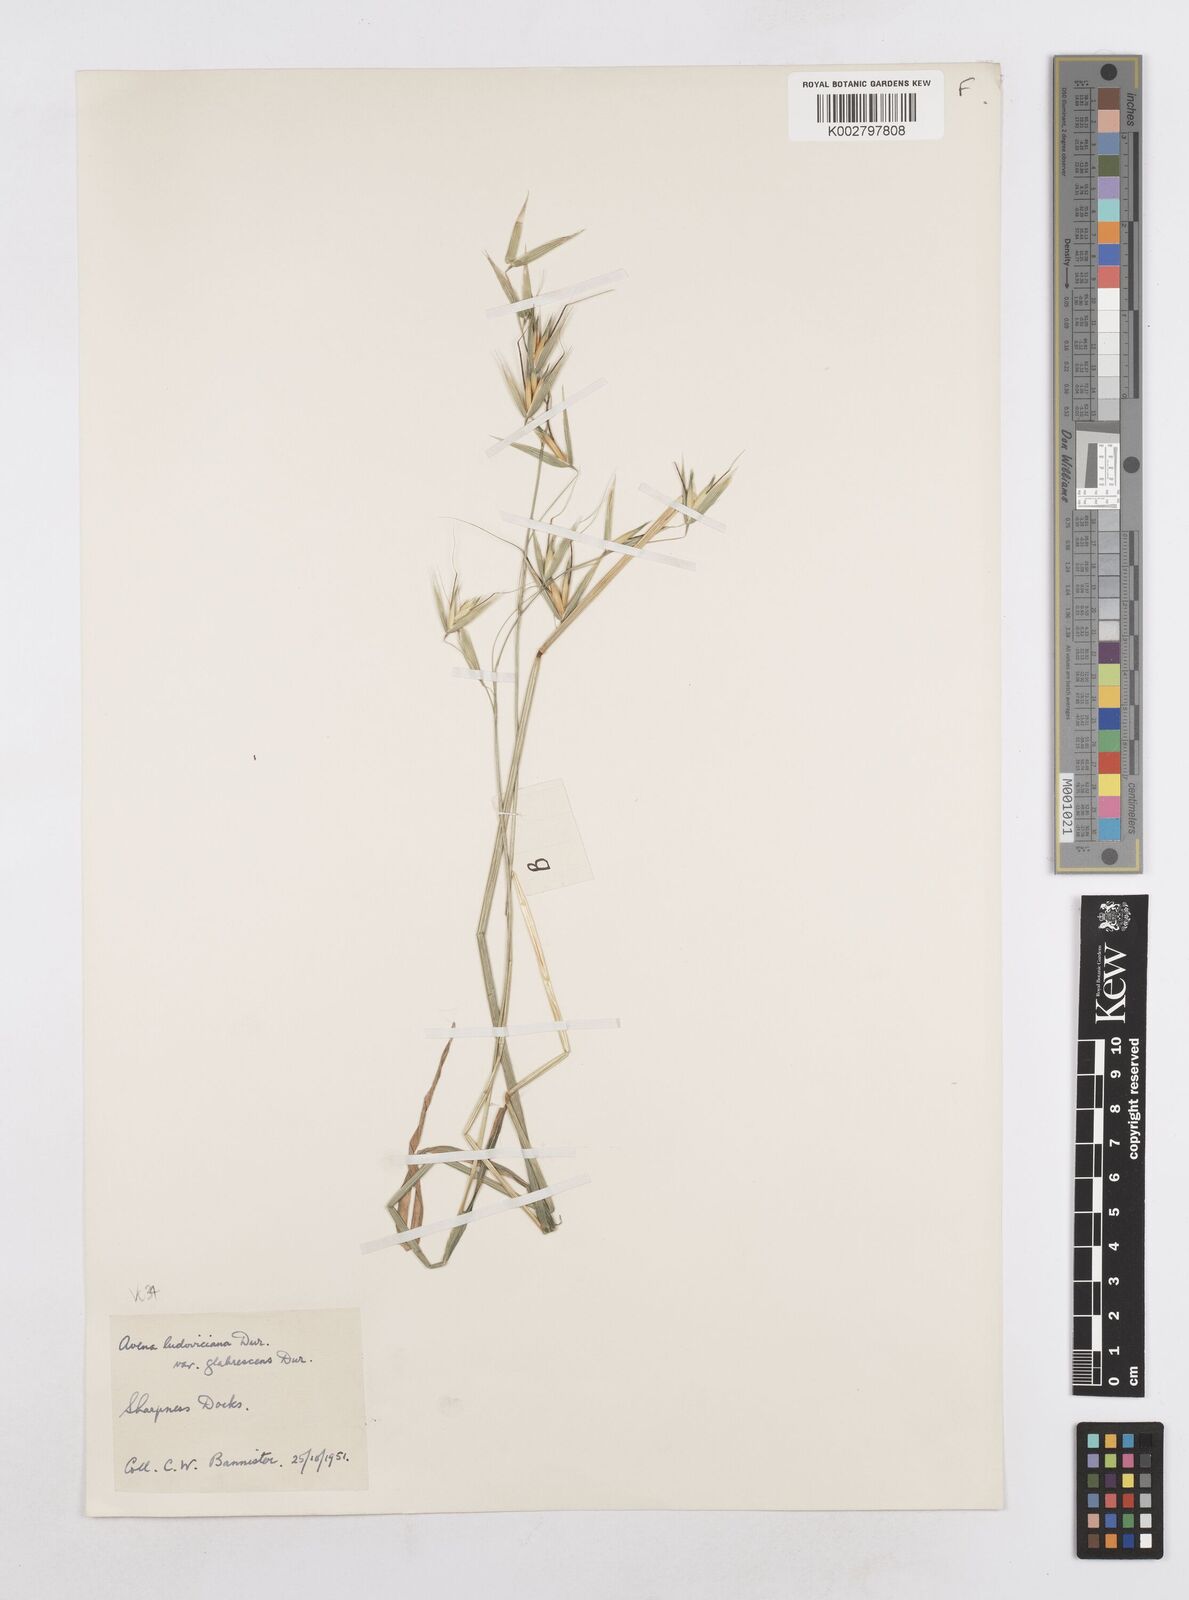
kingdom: Plantae
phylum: Tracheophyta
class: Liliopsida
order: Poales
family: Poaceae
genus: Avena
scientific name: Avena sterilis
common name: Animated oat
